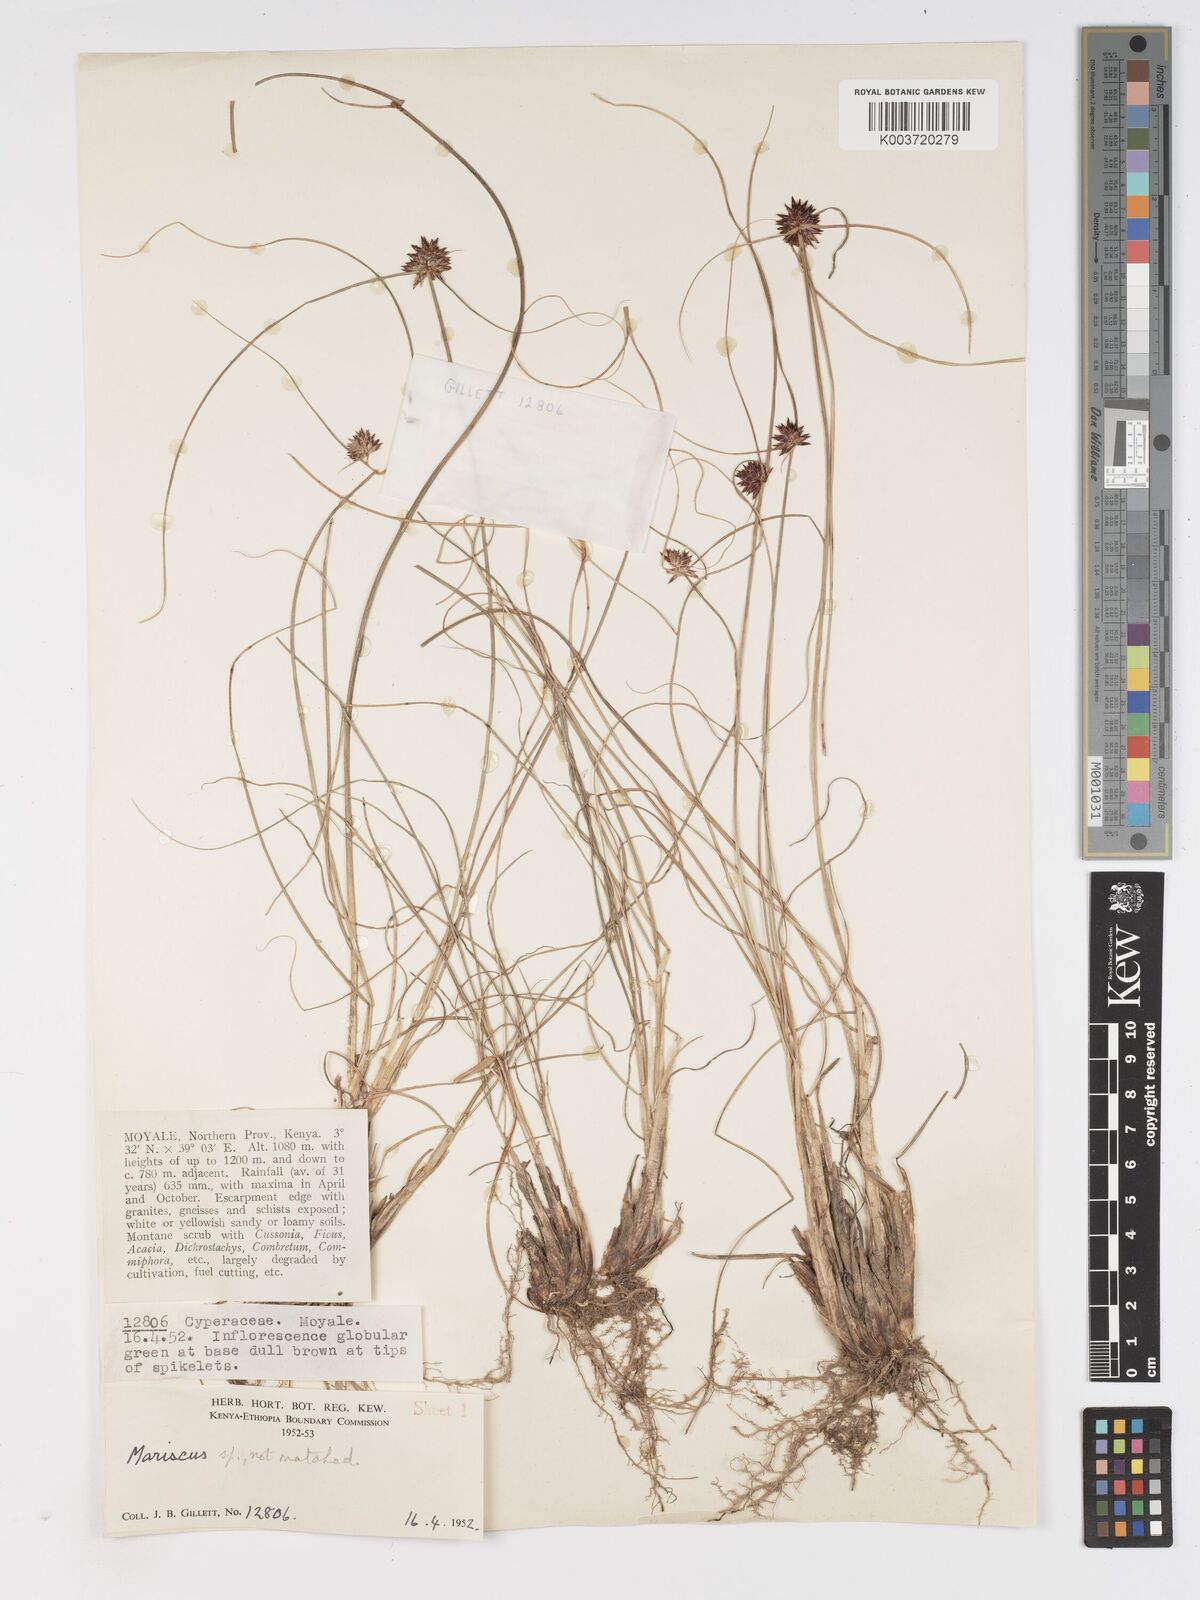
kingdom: Plantae
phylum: Tracheophyta
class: Liliopsida
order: Poales
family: Cyperaceae
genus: Cyperus
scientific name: Cyperus
